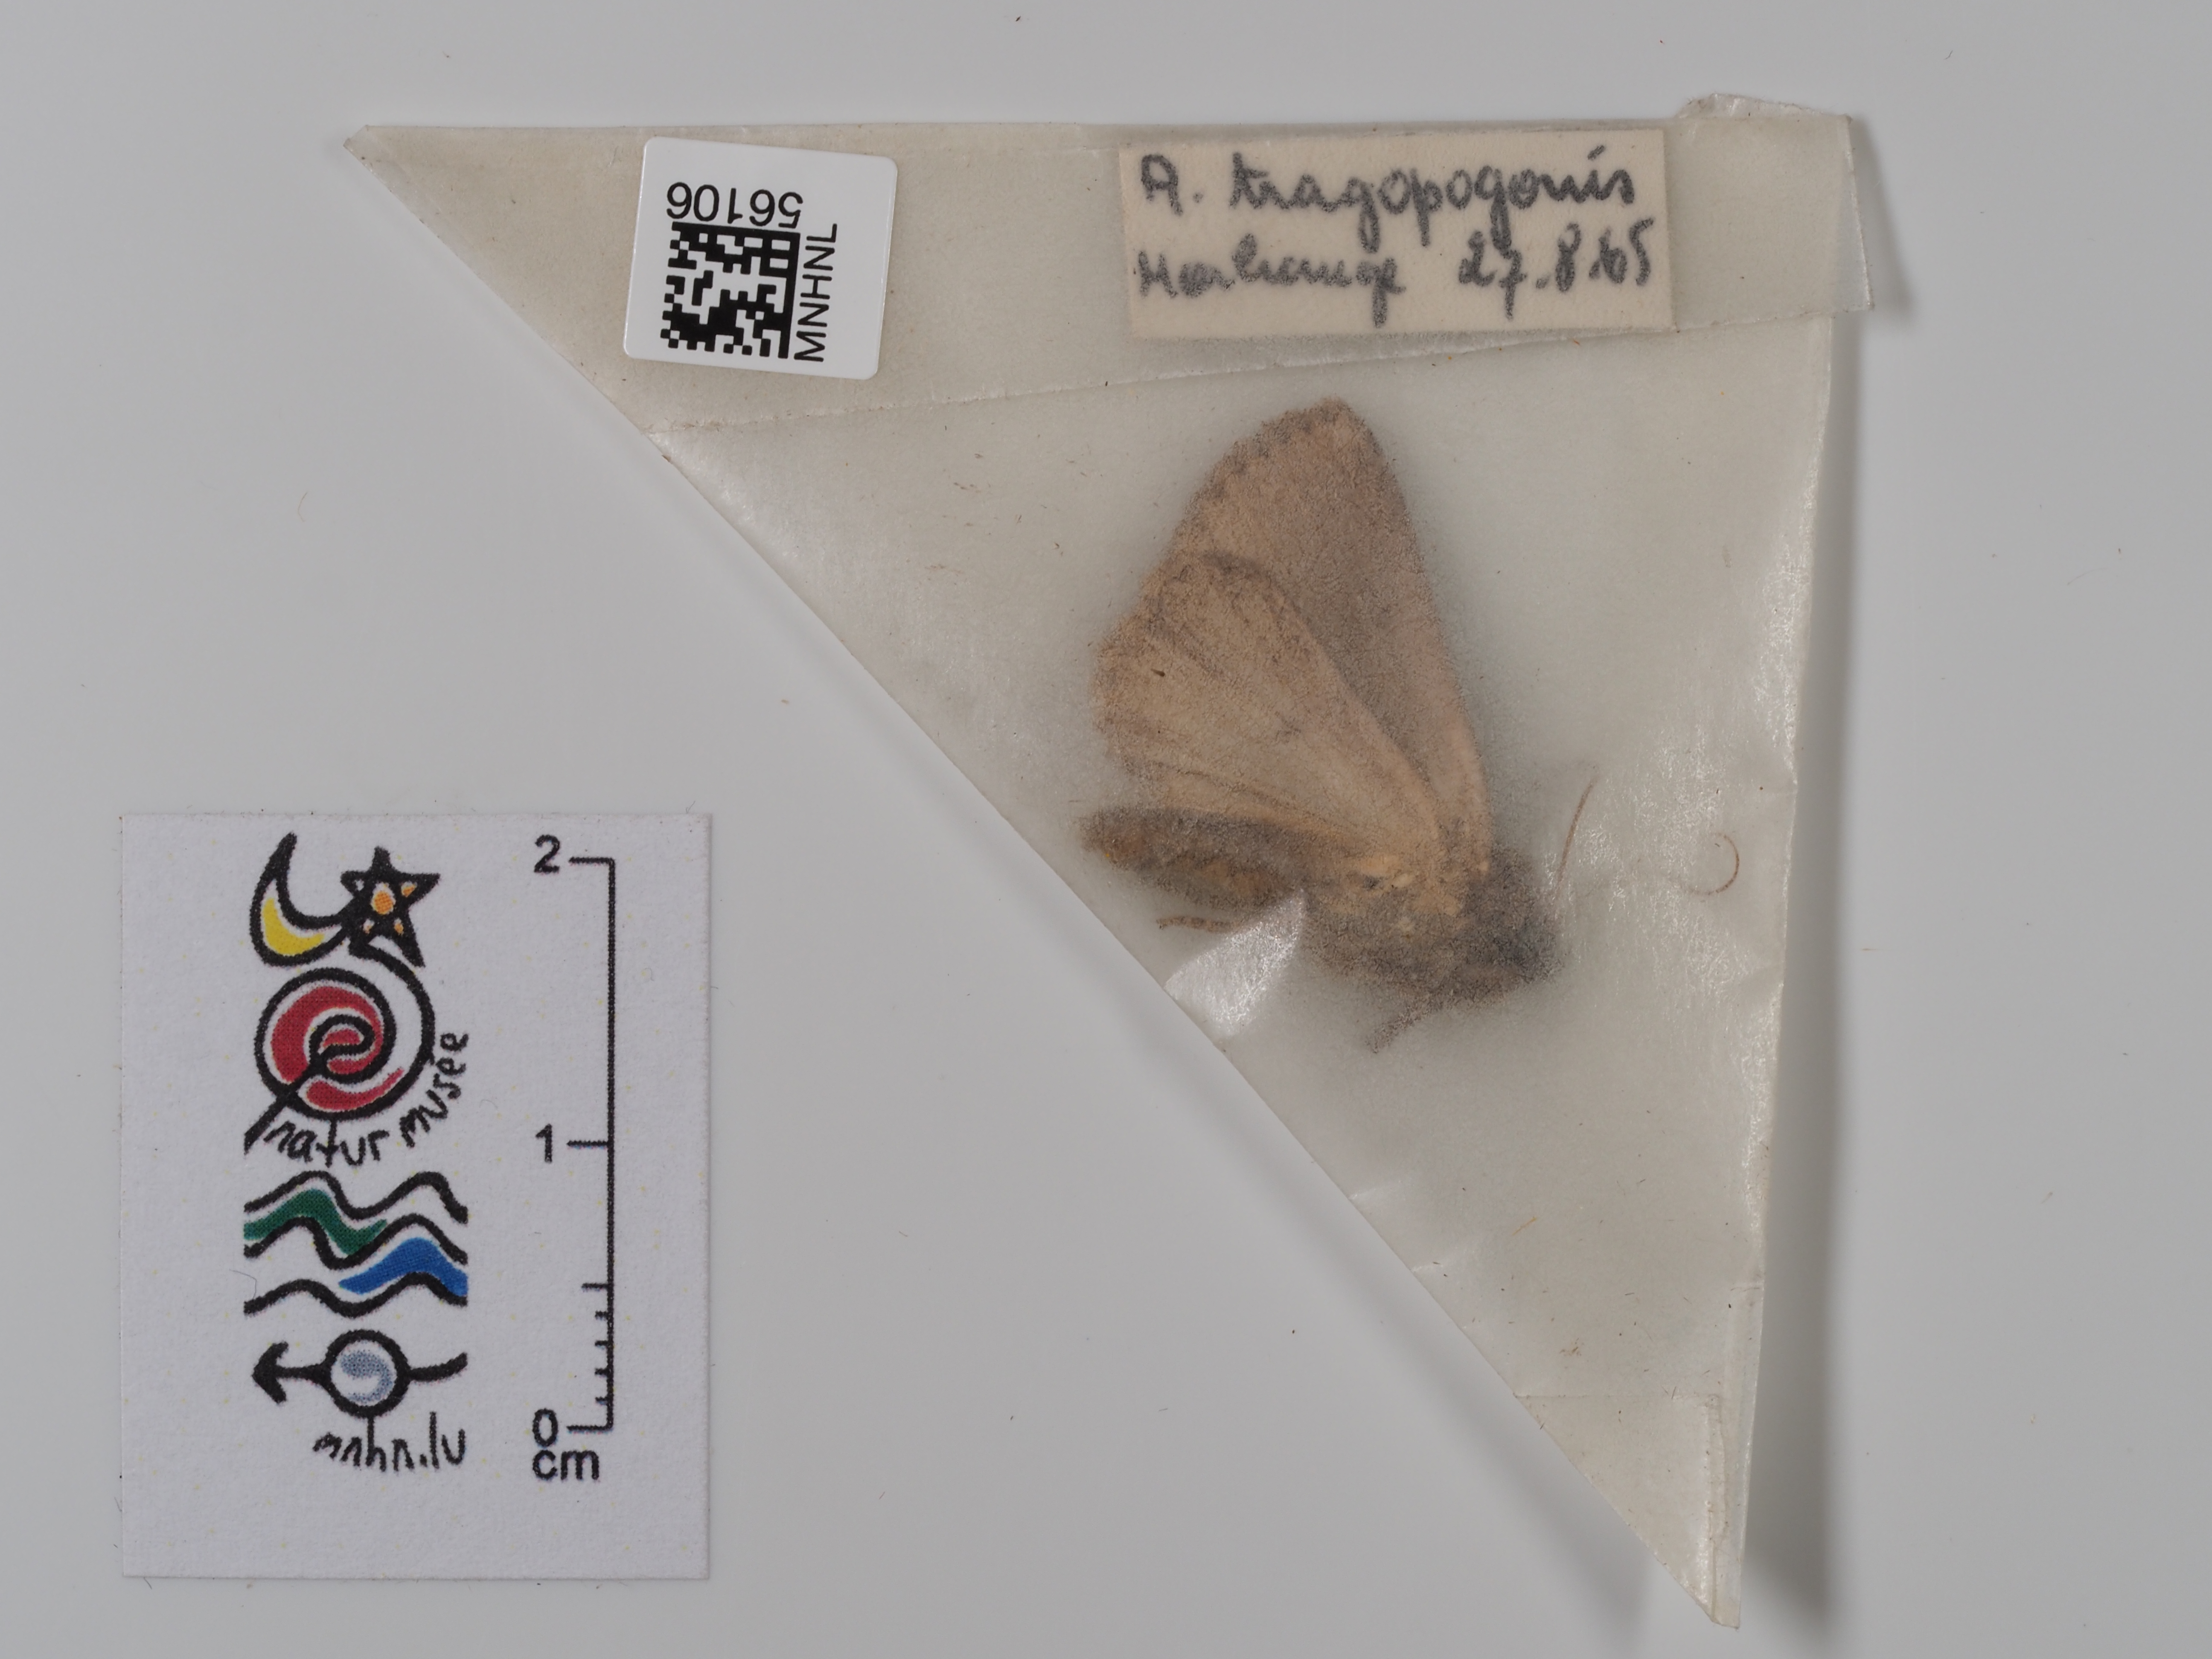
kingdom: Animalia
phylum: Arthropoda
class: Insecta
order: Lepidoptera
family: Noctuidae
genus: Amphipyra
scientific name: Amphipyra tragopoginis
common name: Mouse moth
